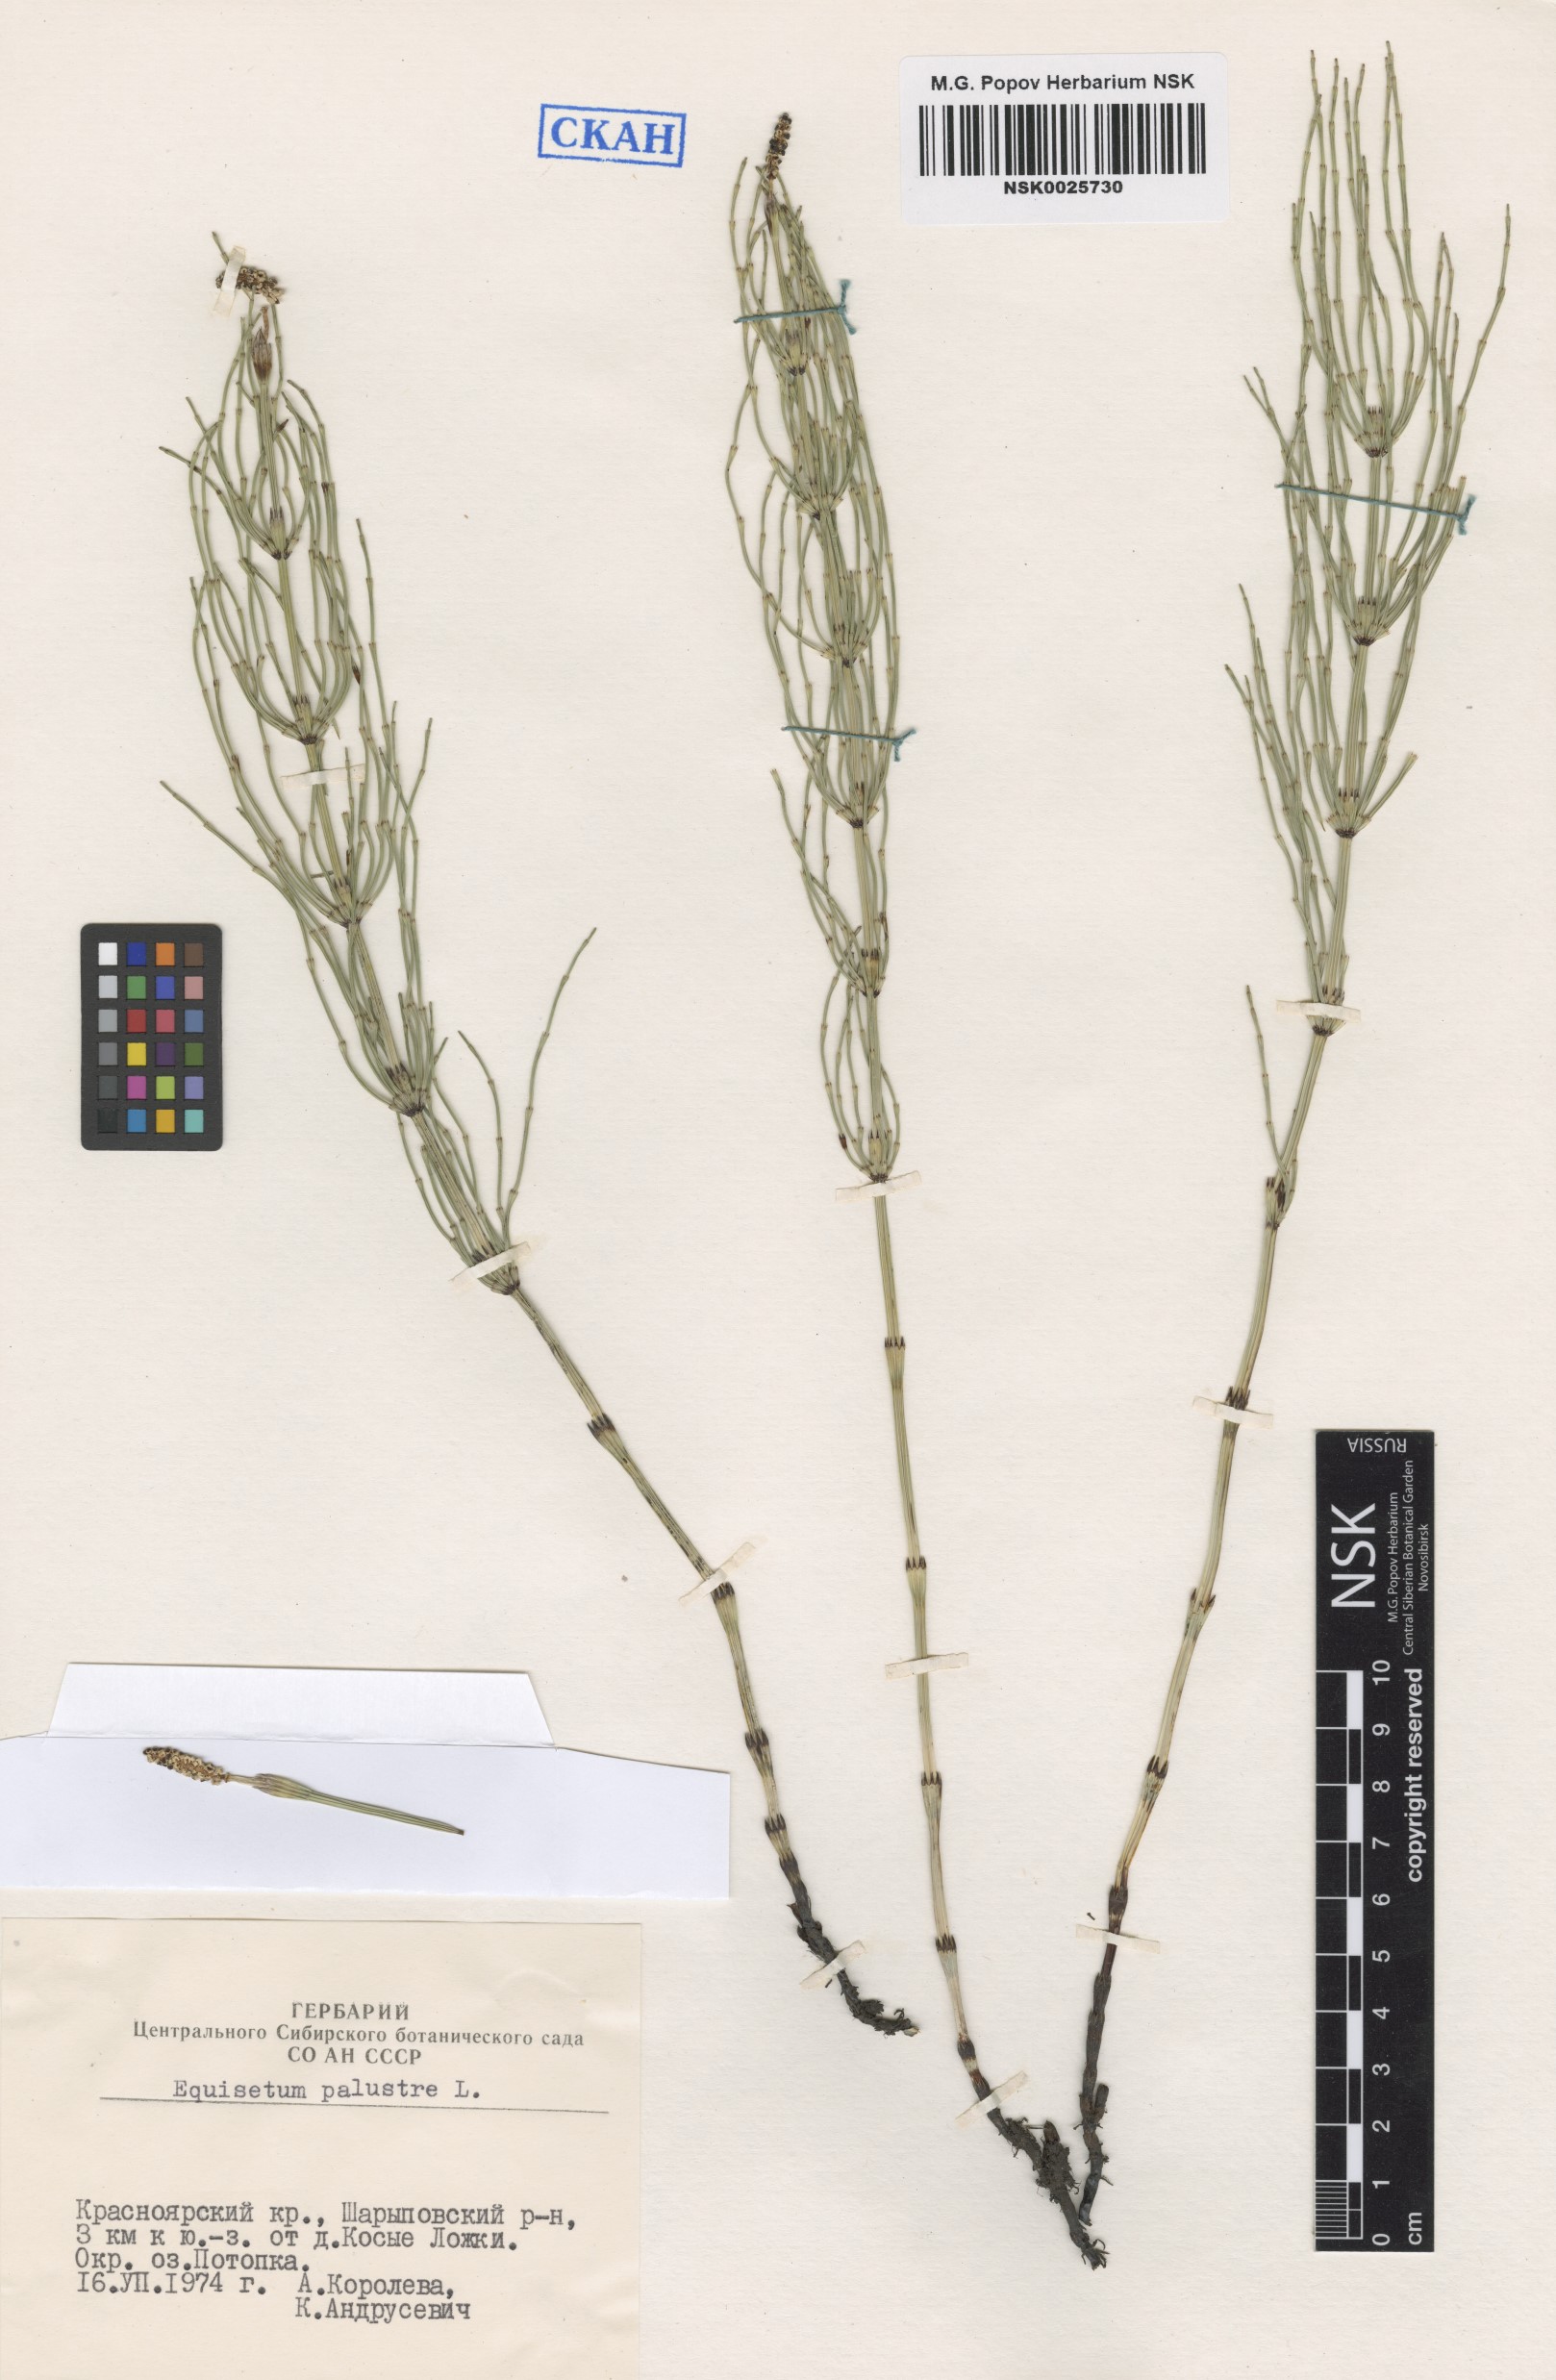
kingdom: Plantae
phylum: Tracheophyta
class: Polypodiopsida
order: Equisetales
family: Equisetaceae
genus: Equisetum
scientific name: Equisetum palustre
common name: Marsh horsetail
